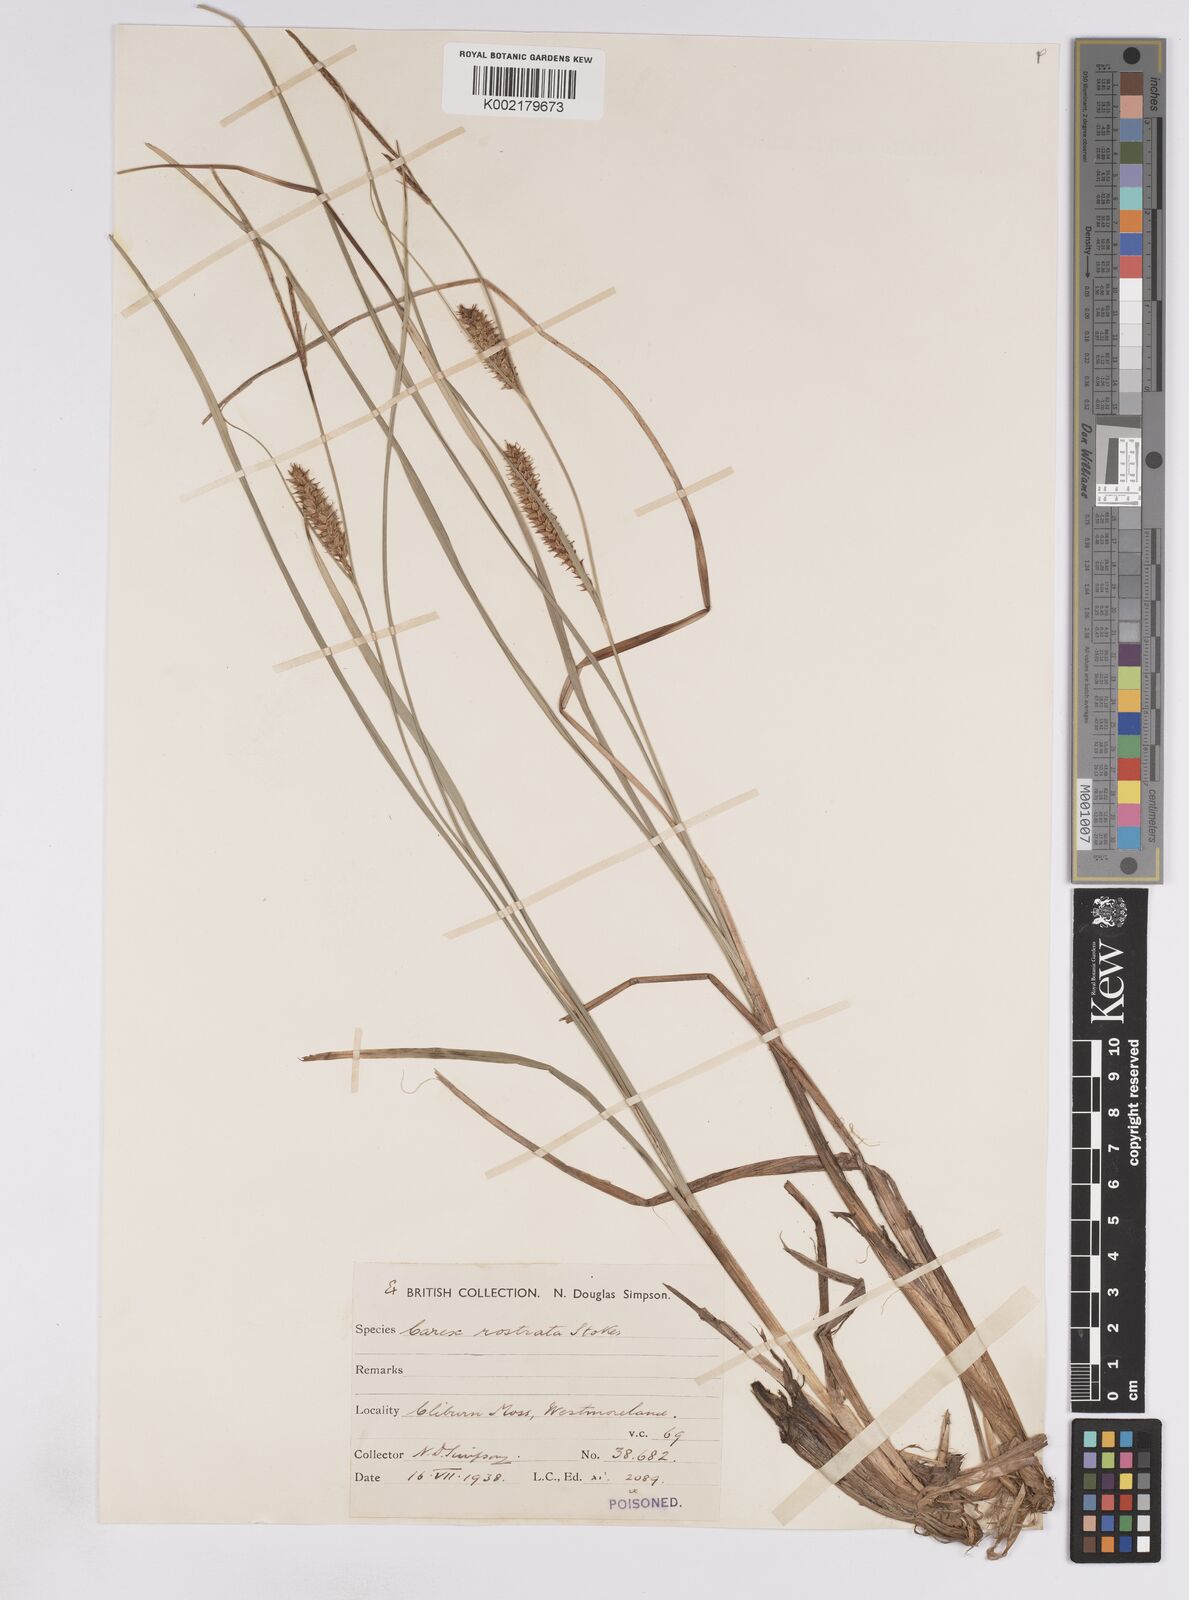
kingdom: Plantae
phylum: Tracheophyta
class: Liliopsida
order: Poales
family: Cyperaceae
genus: Carex
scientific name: Carex rostrata
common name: Bottle sedge
